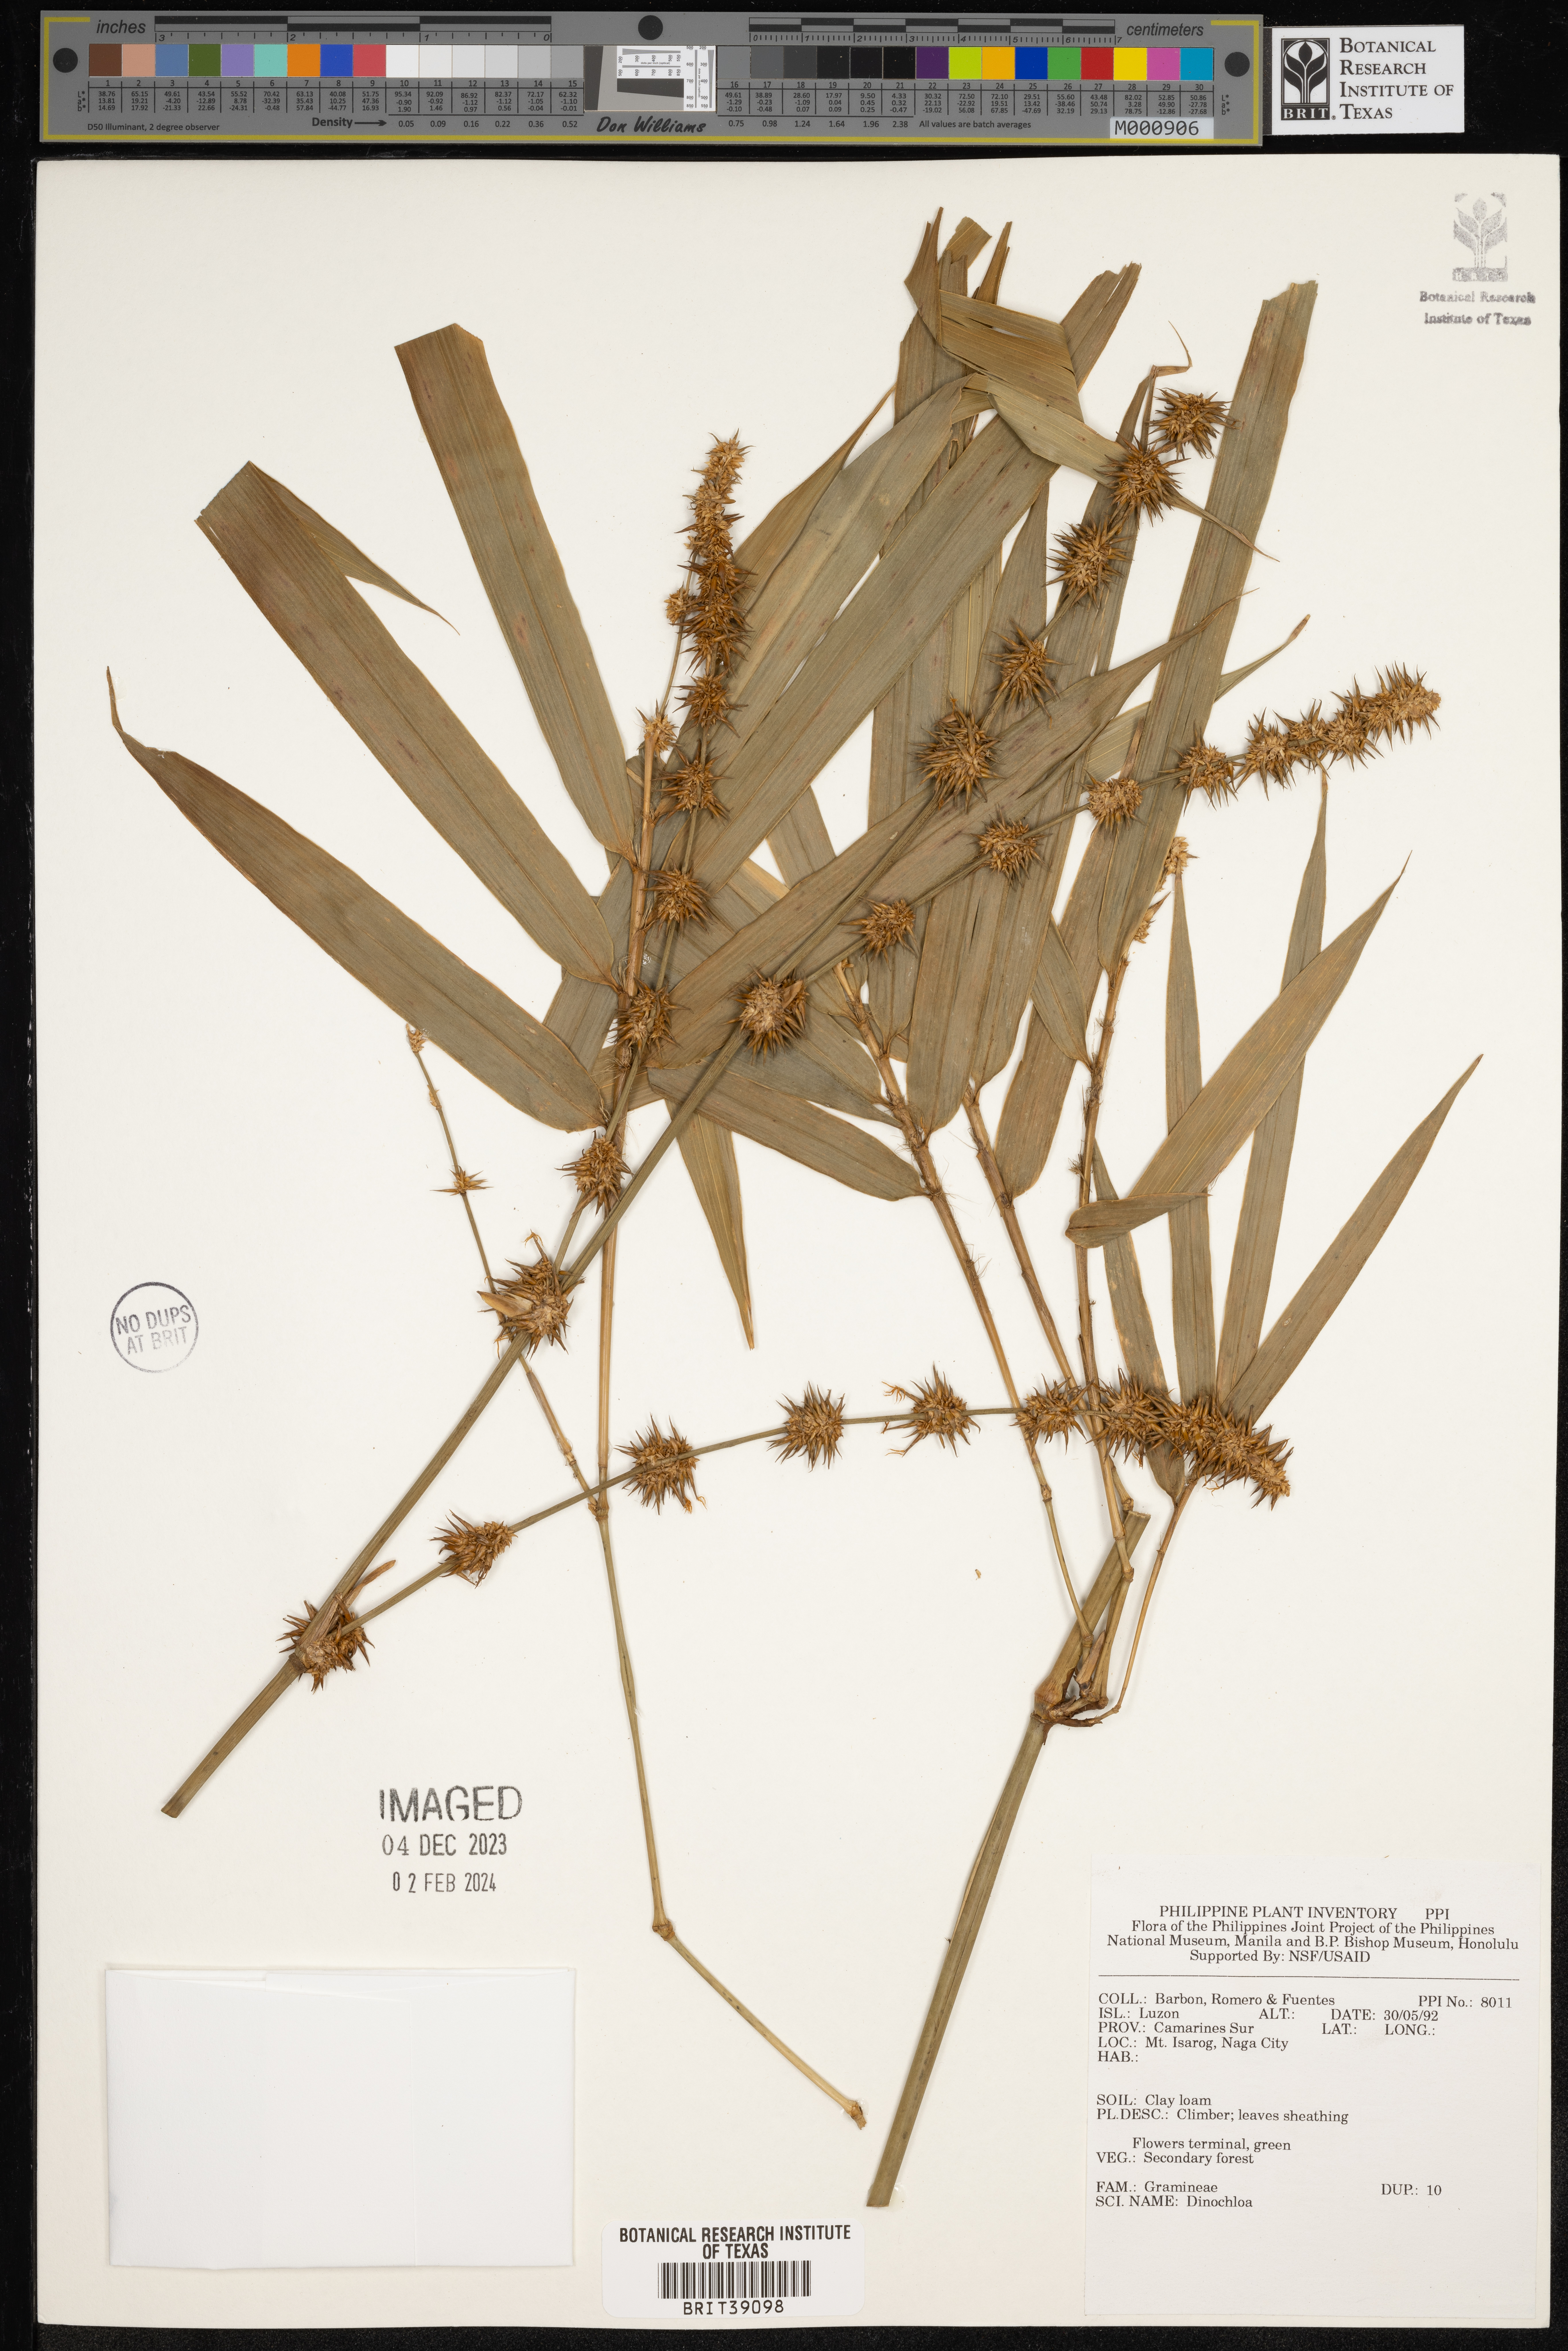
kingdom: Plantae
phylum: Tracheophyta
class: Liliopsida
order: Poales
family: Poaceae
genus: Dinochloa
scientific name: Dinochloa
